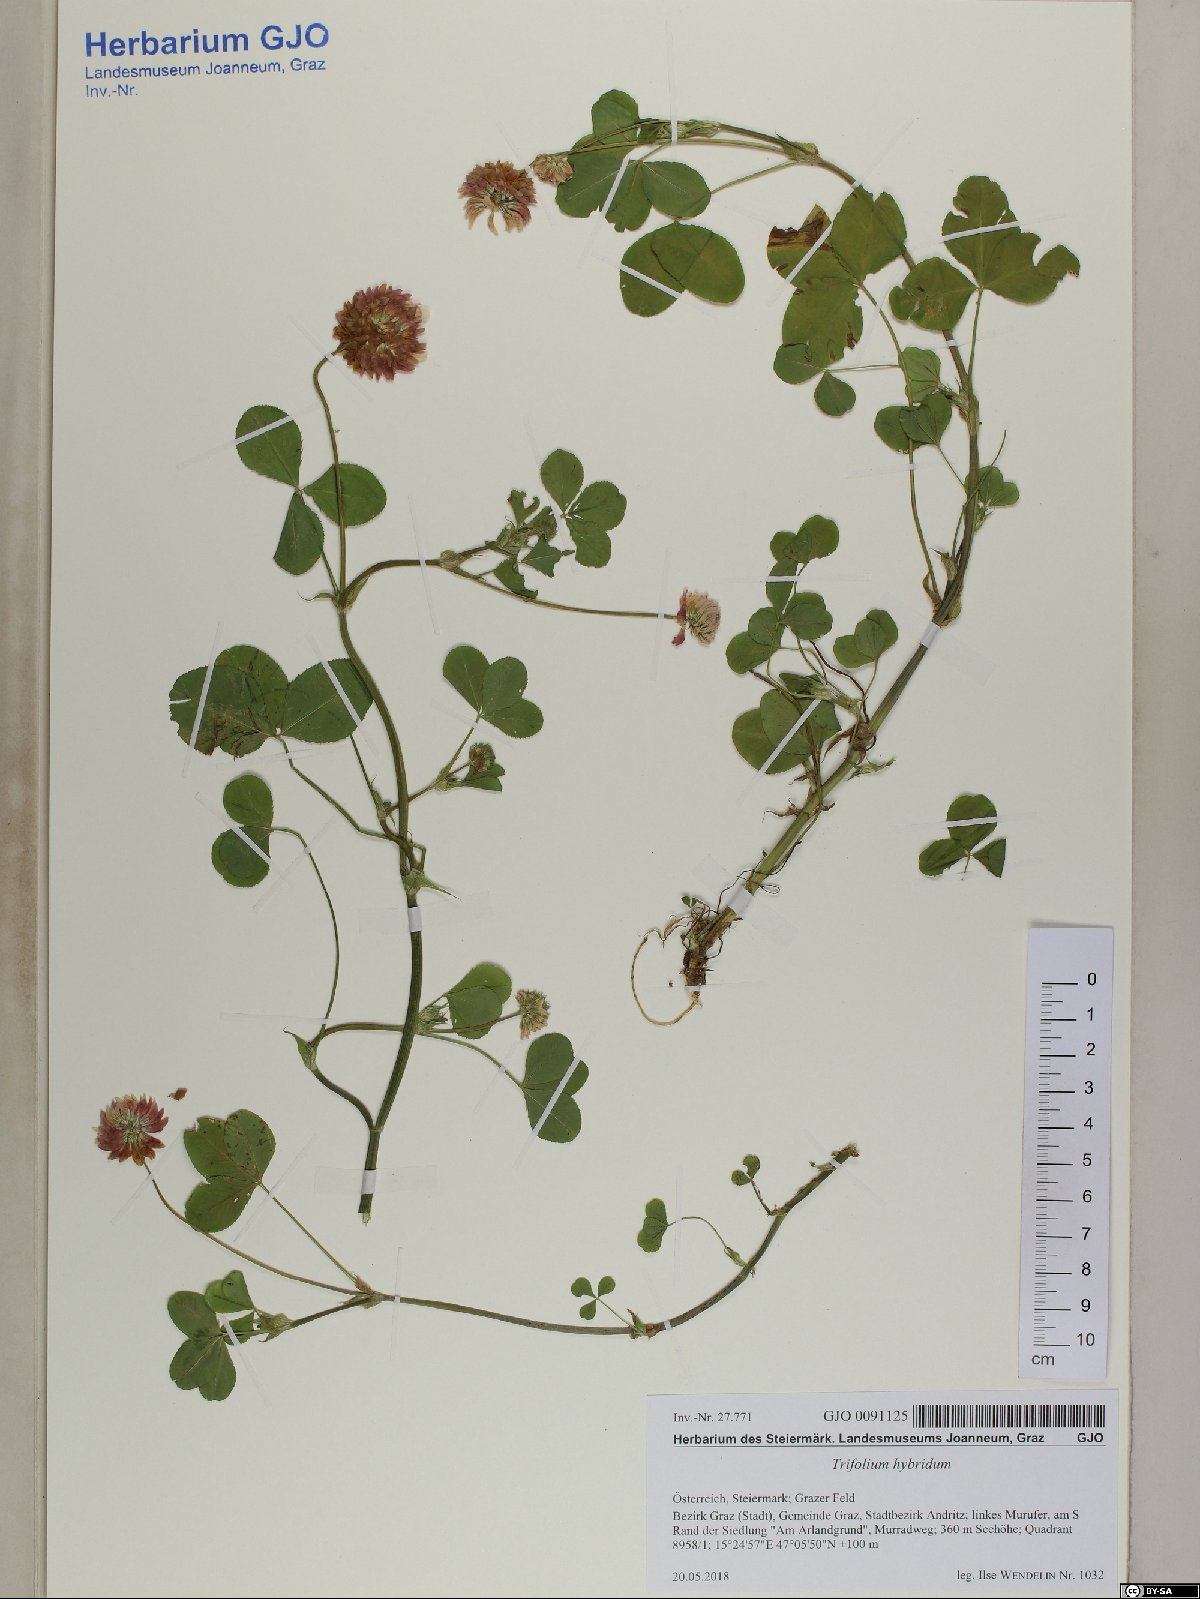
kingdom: Plantae
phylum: Tracheophyta
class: Magnoliopsida
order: Fabales
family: Fabaceae
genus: Trifolium
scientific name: Trifolium hybridum
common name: Alsike clover
